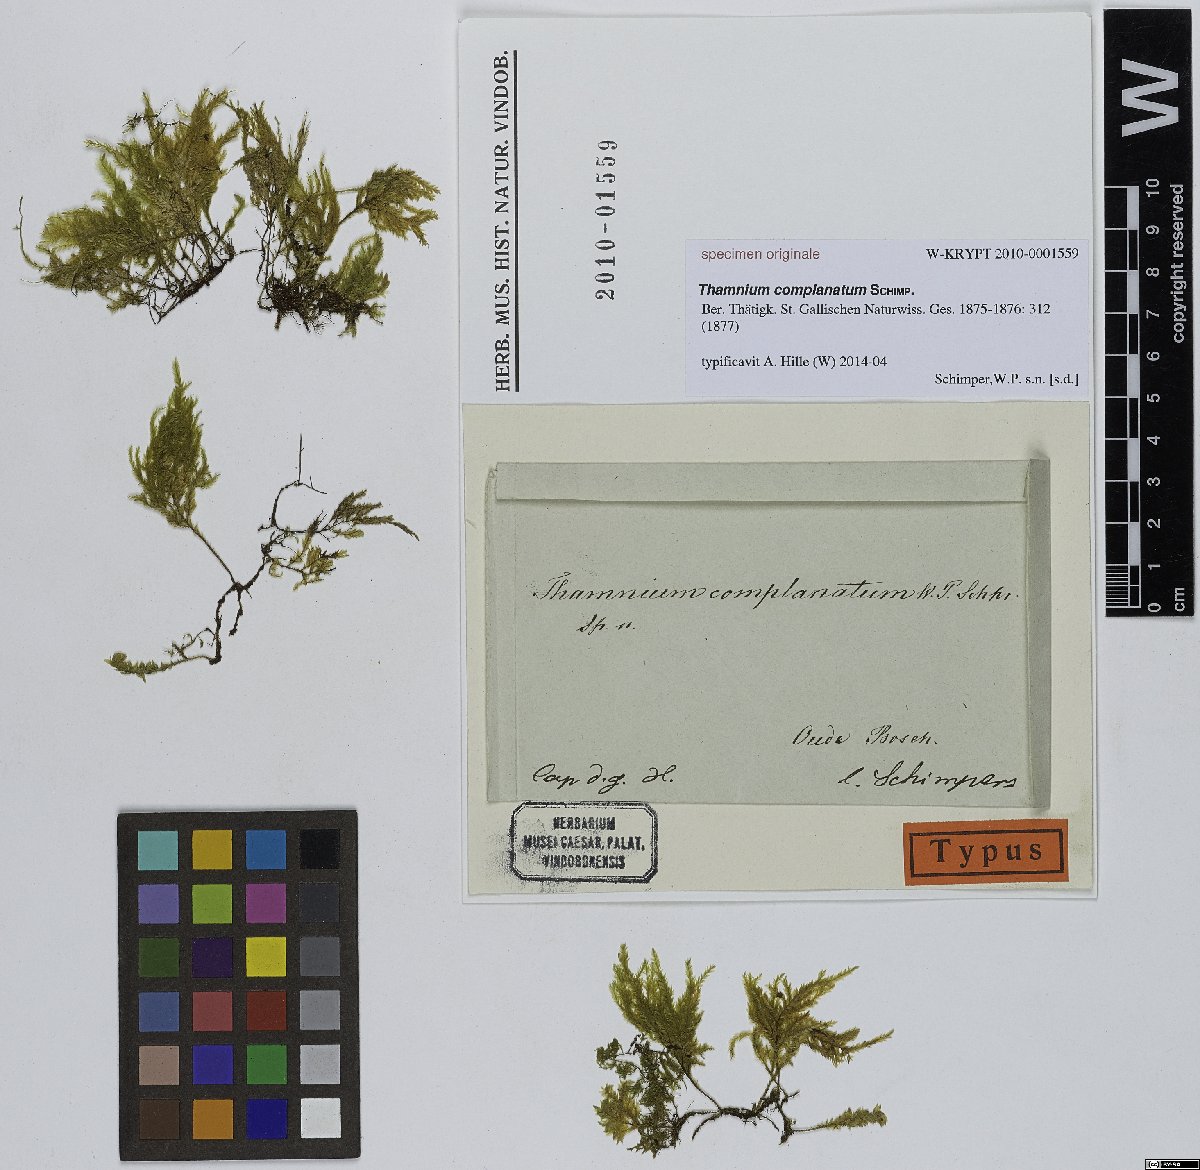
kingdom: Plantae
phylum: Bryophyta
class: Bryopsida
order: Hypnales
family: Neckeraceae
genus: Thamnium
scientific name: Thamnium
